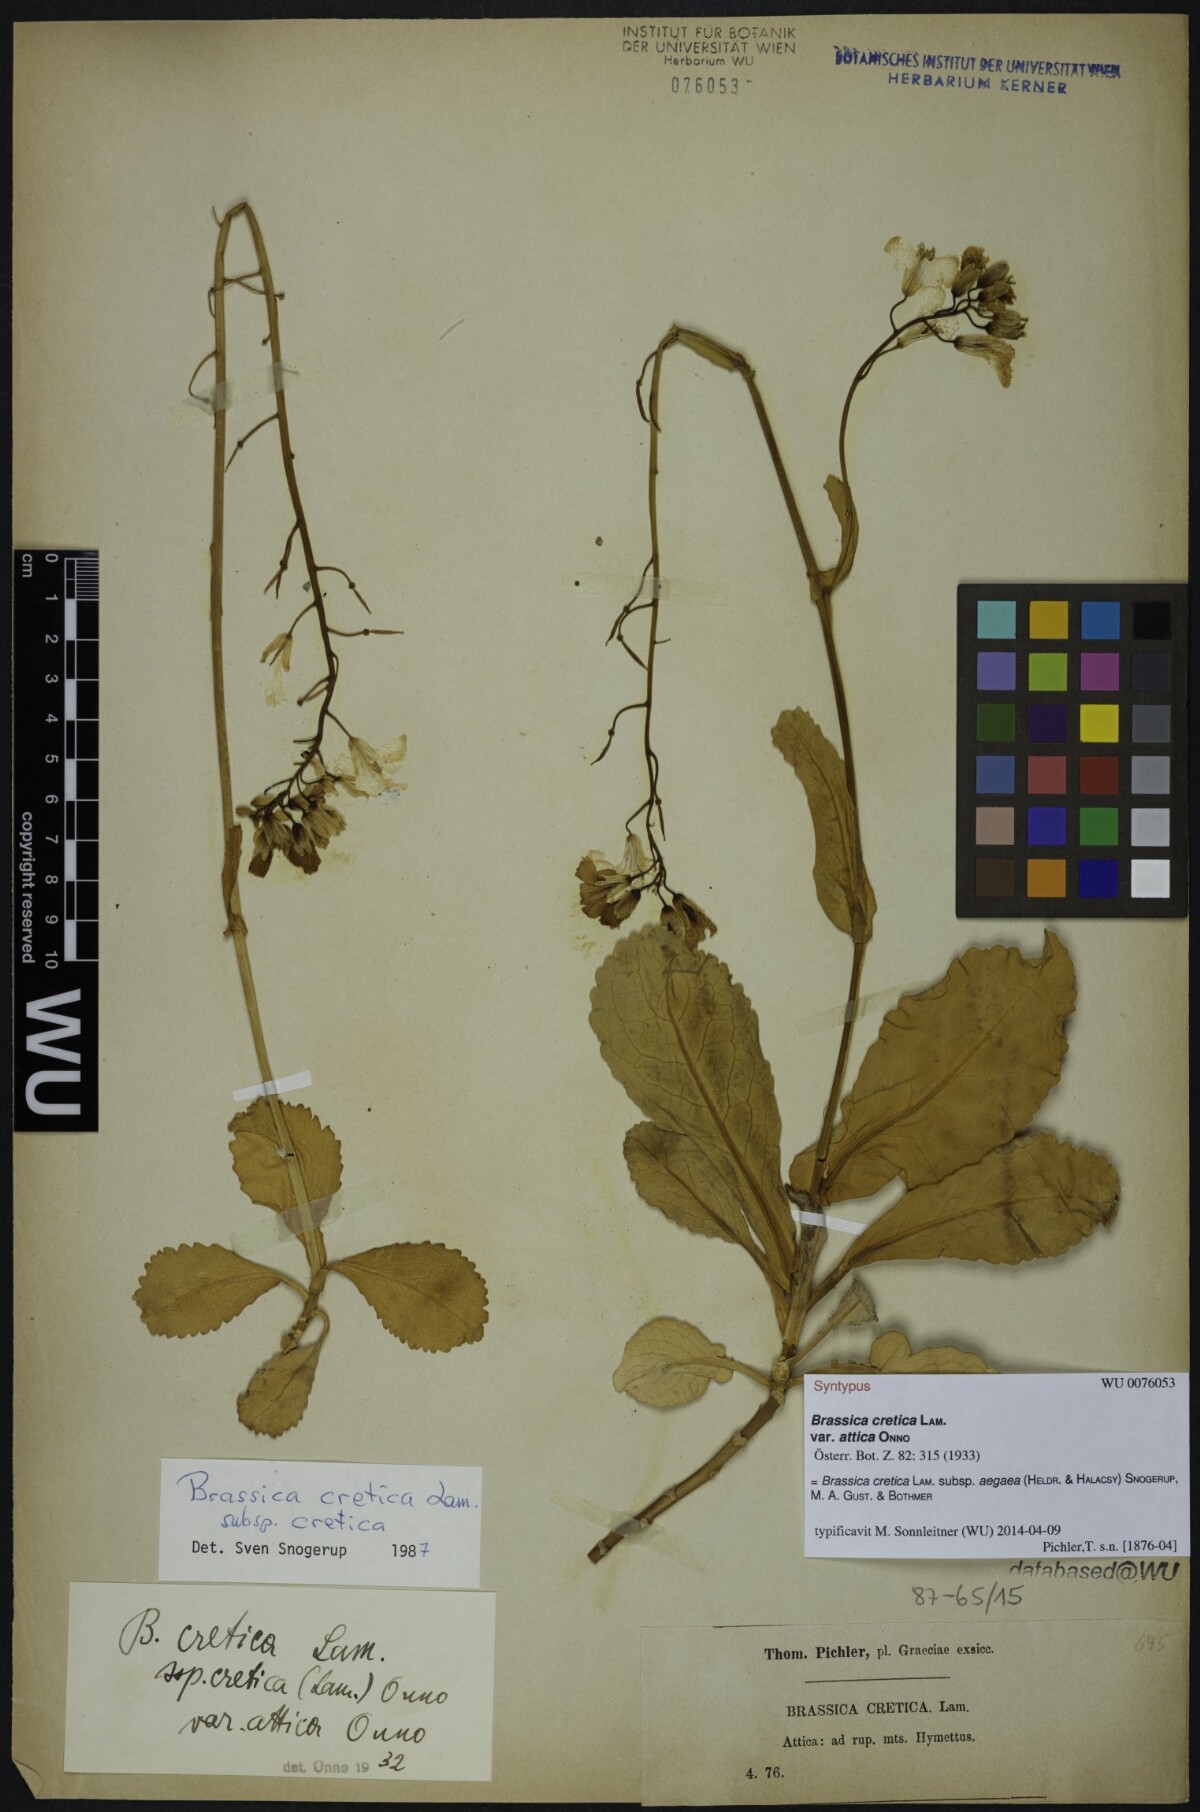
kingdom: Plantae
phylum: Tracheophyta
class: Magnoliopsida
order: Brassicales
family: Brassicaceae
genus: Brassica
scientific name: Brassica cretica
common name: Mustard
